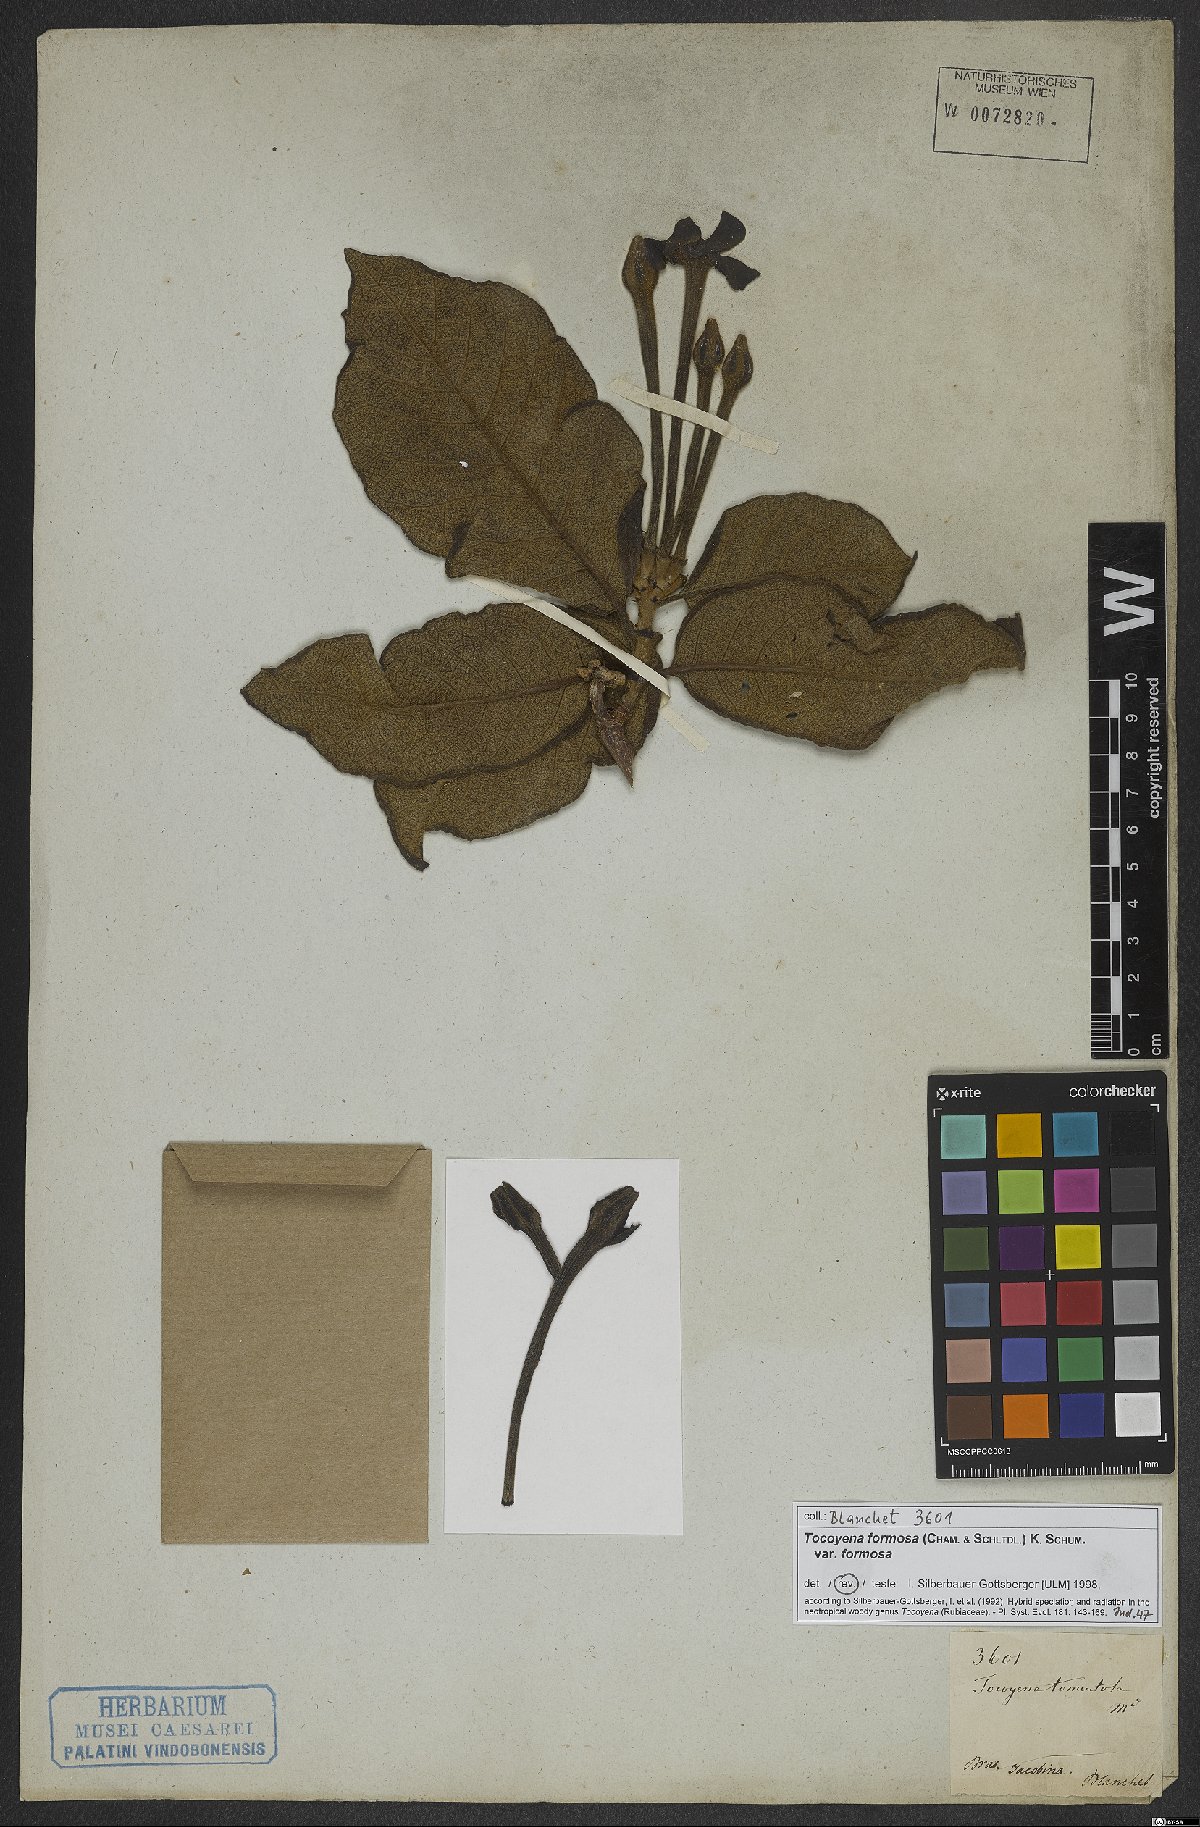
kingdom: Plantae
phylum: Tracheophyta
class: Magnoliopsida
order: Gentianales
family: Rubiaceae
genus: Tocoyena
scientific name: Tocoyena formosa
